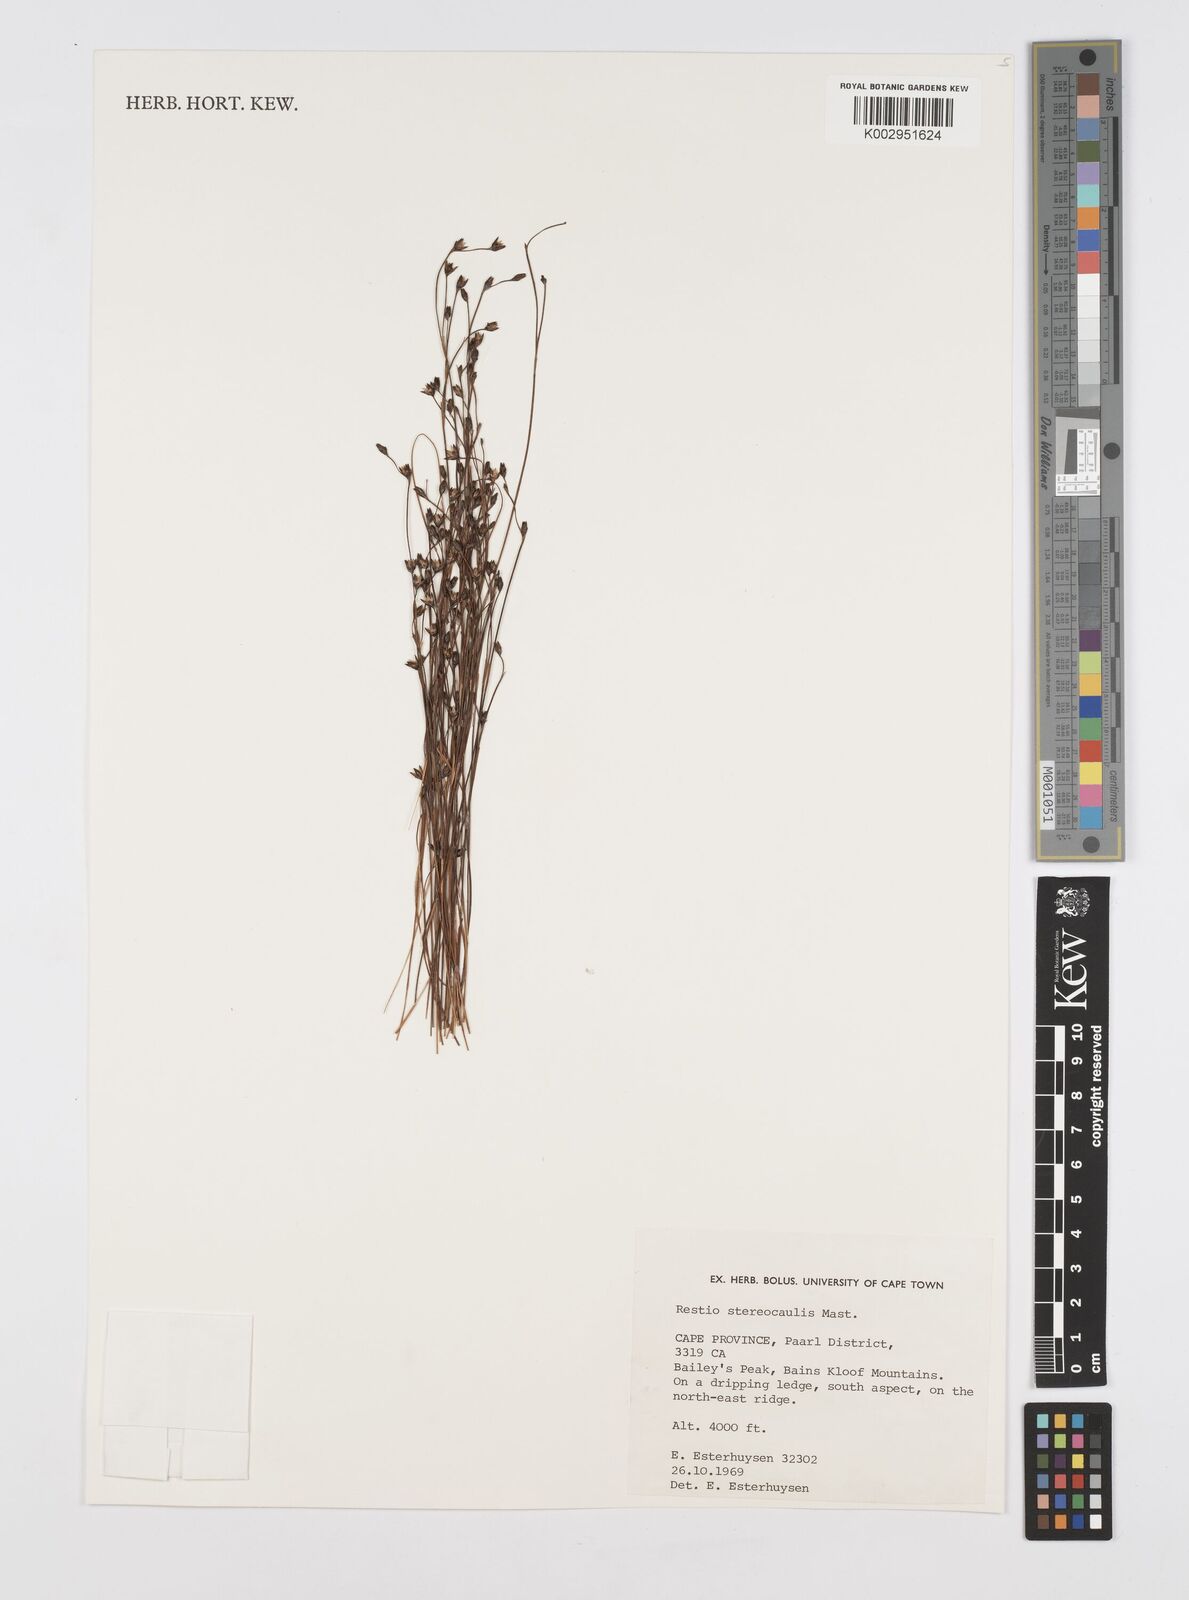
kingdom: Plantae
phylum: Tracheophyta
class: Liliopsida
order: Poales
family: Restionaceae
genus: Restio
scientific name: Restio stereocaulis
